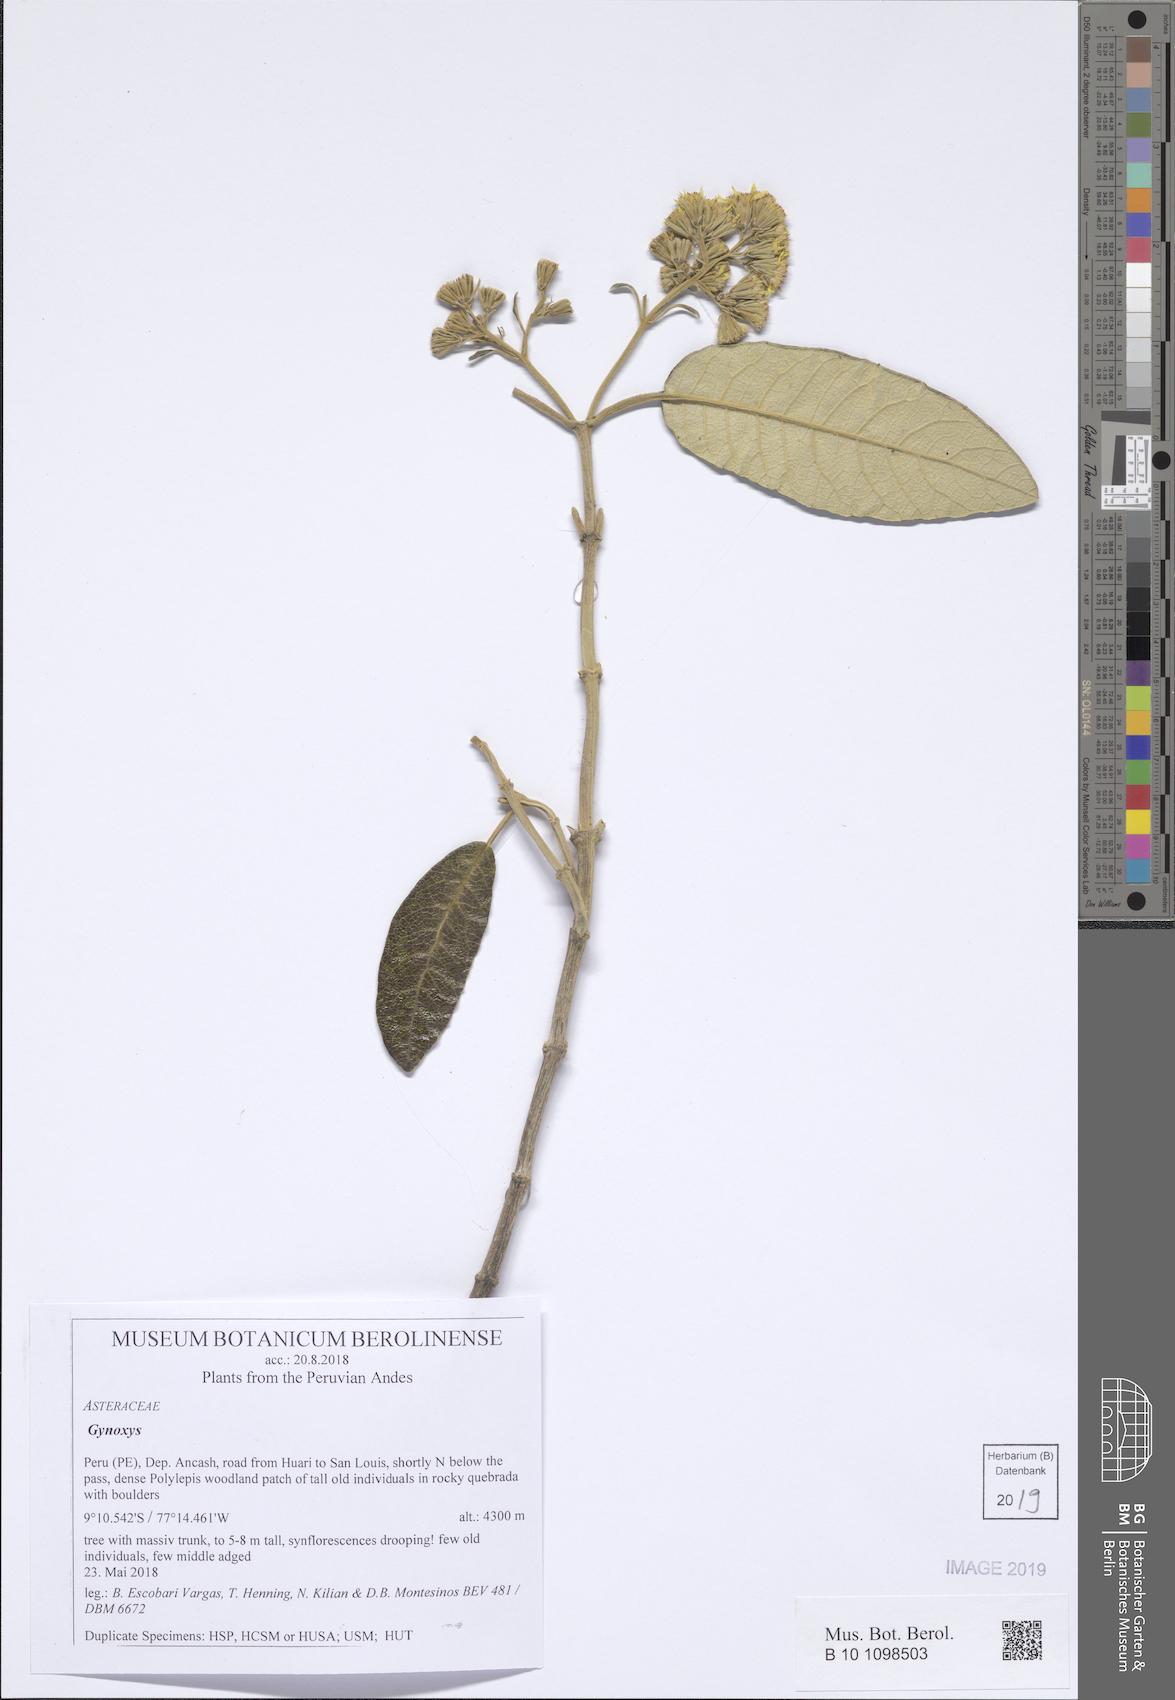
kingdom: Plantae
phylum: Tracheophyta
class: Magnoliopsida
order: Asterales
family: Asteraceae
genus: Gynoxys
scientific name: Gynoxys
